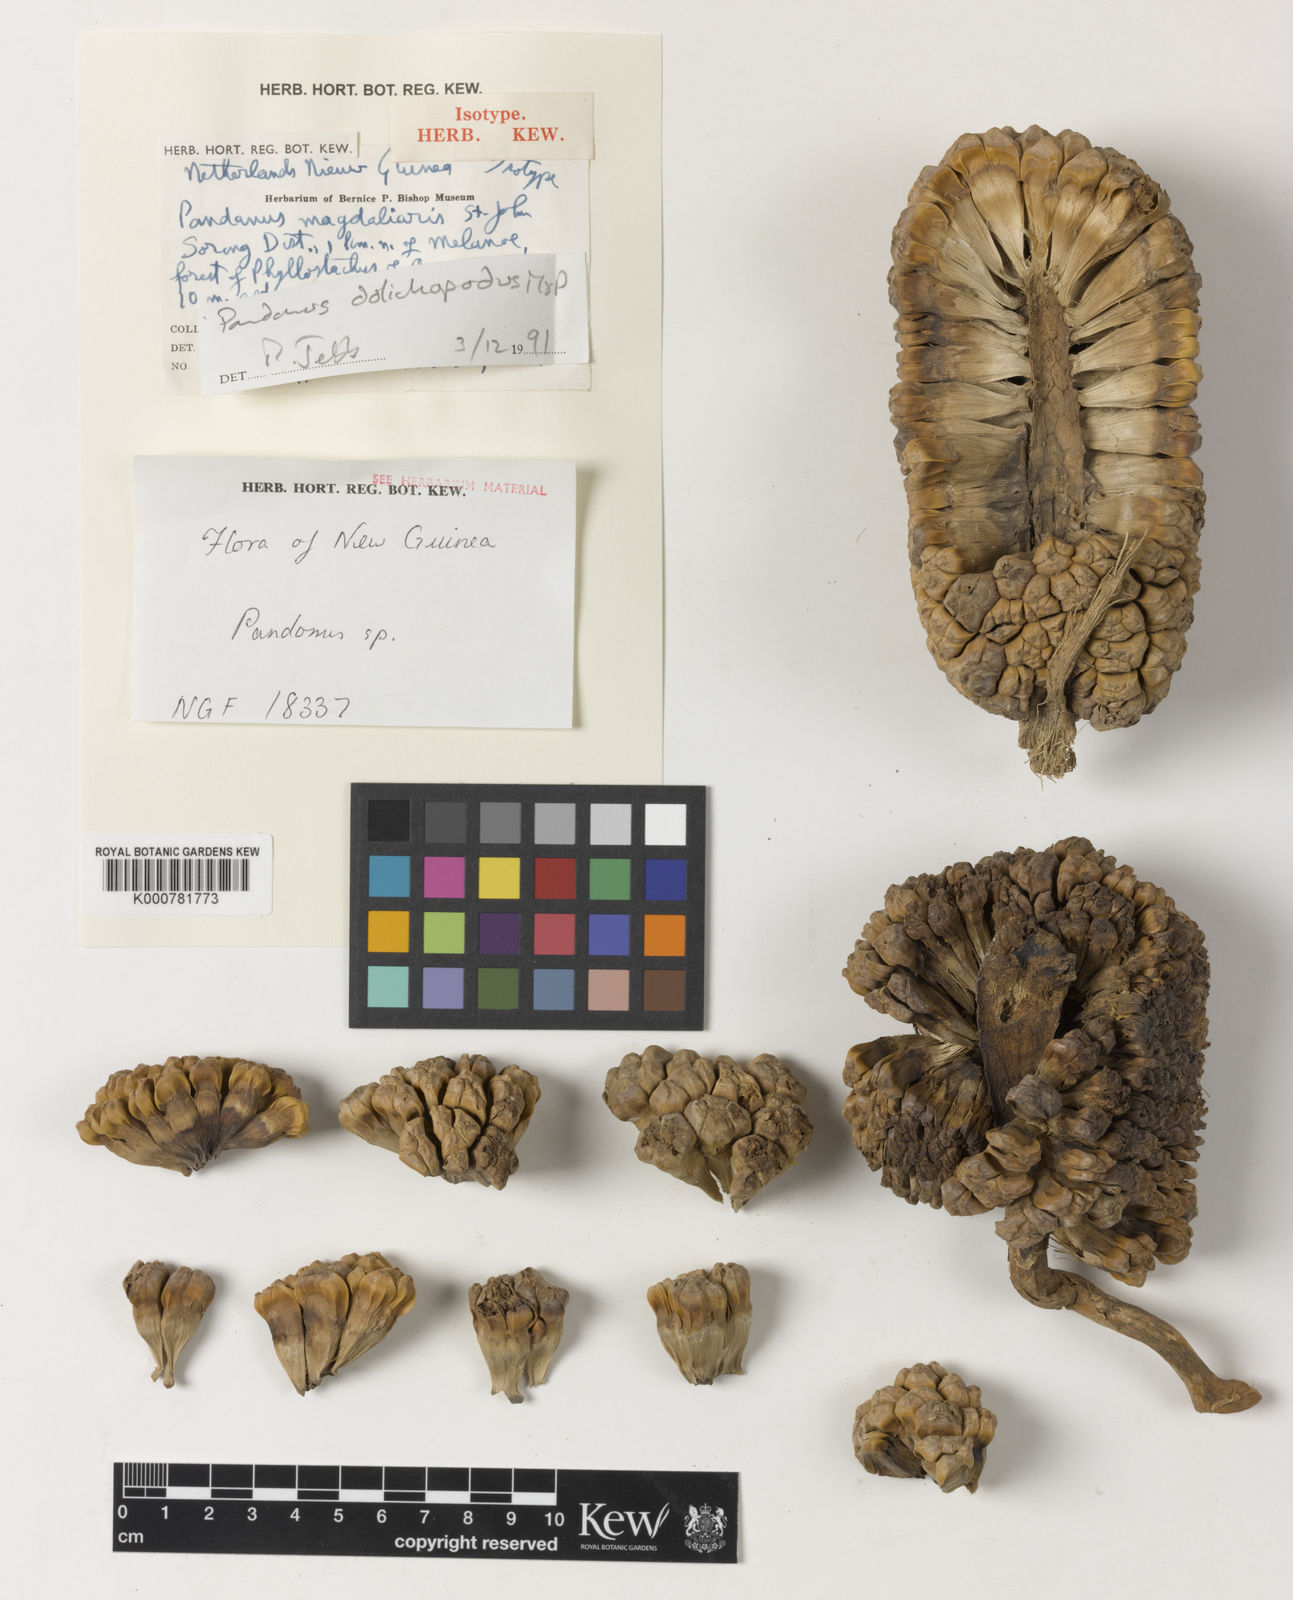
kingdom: Plantae
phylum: Tracheophyta
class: Liliopsida
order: Pandanales
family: Pandanaceae
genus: Pandanus
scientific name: Pandanus dolichopodus
